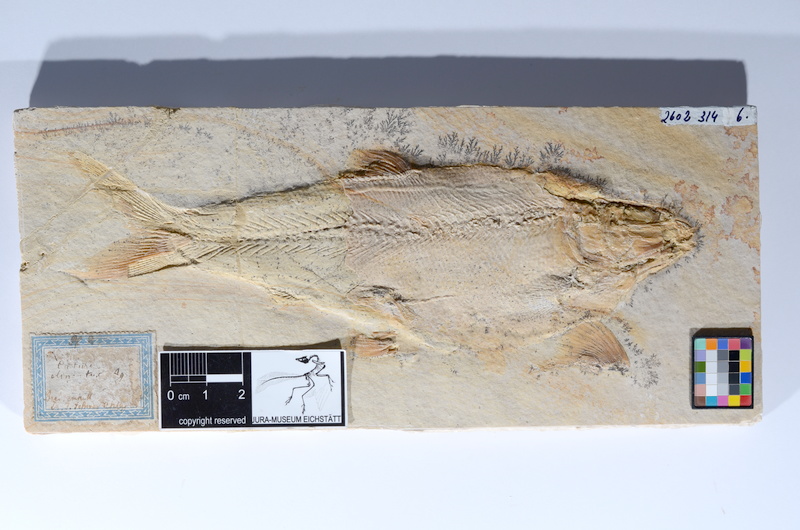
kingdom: Animalia
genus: Halecomorphi
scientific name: Halecomorphi
